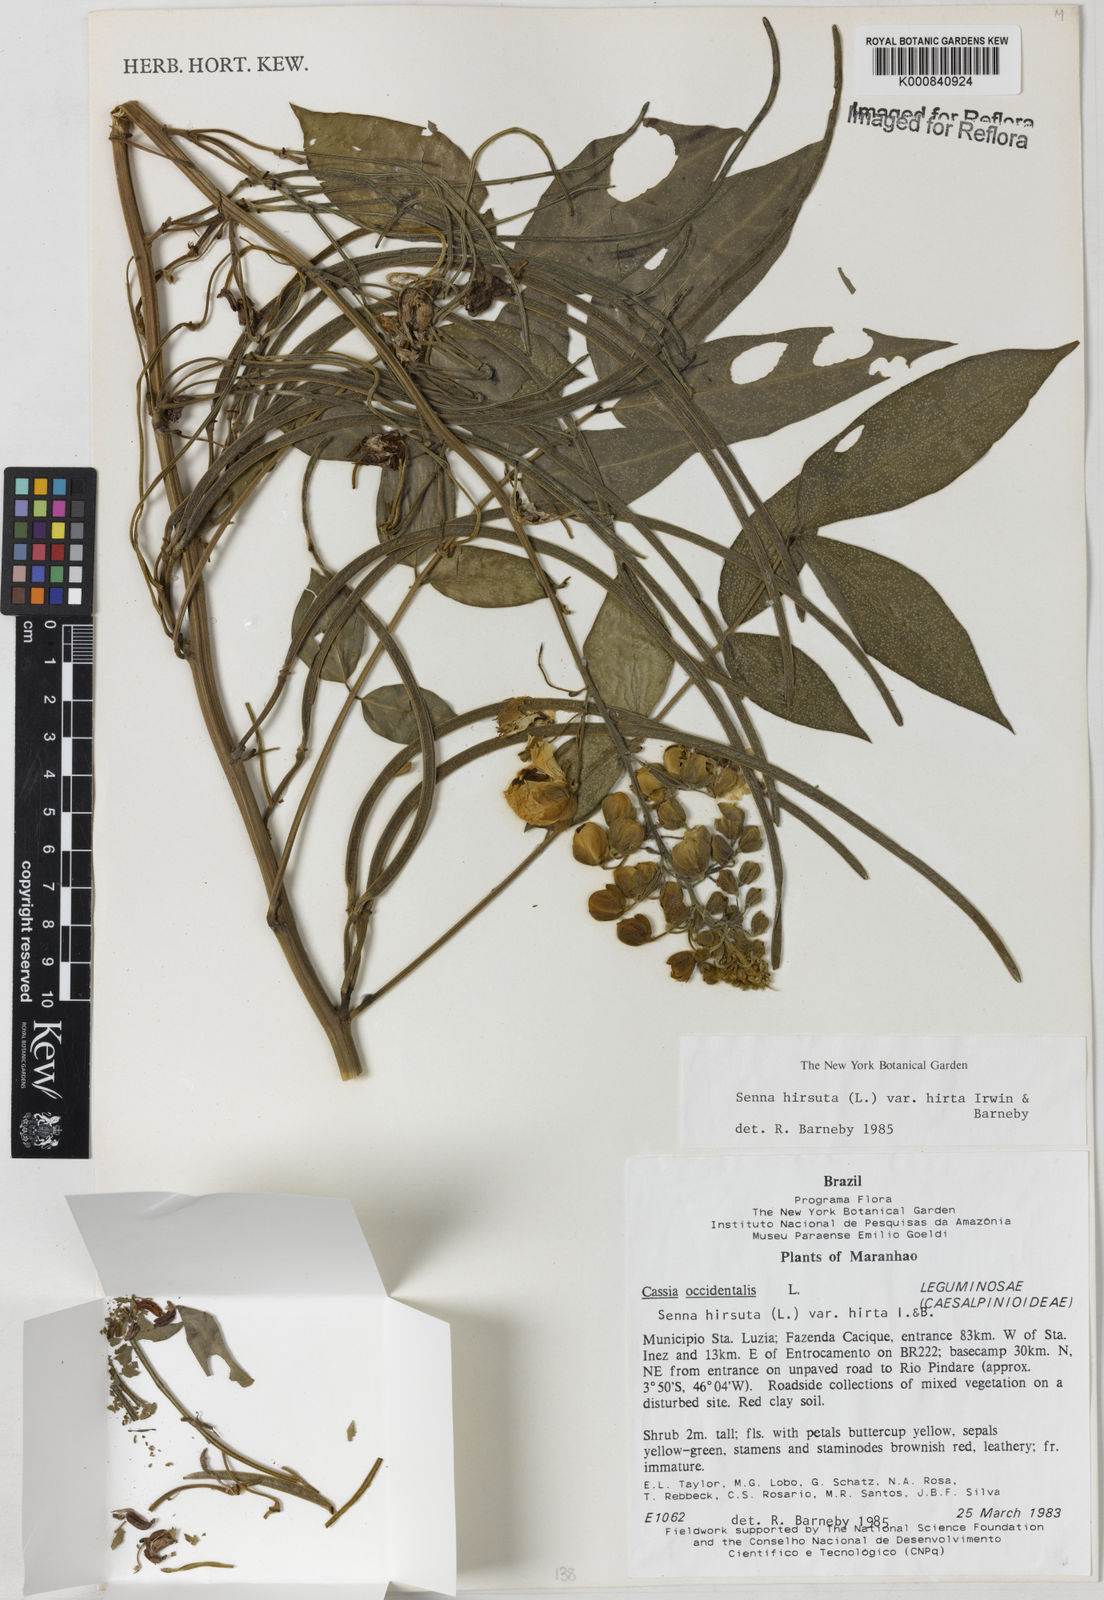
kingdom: Plantae
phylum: Tracheophyta
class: Magnoliopsida
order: Fabales
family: Fabaceae
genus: Senna
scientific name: Senna hirsuta
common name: Woolly senna
